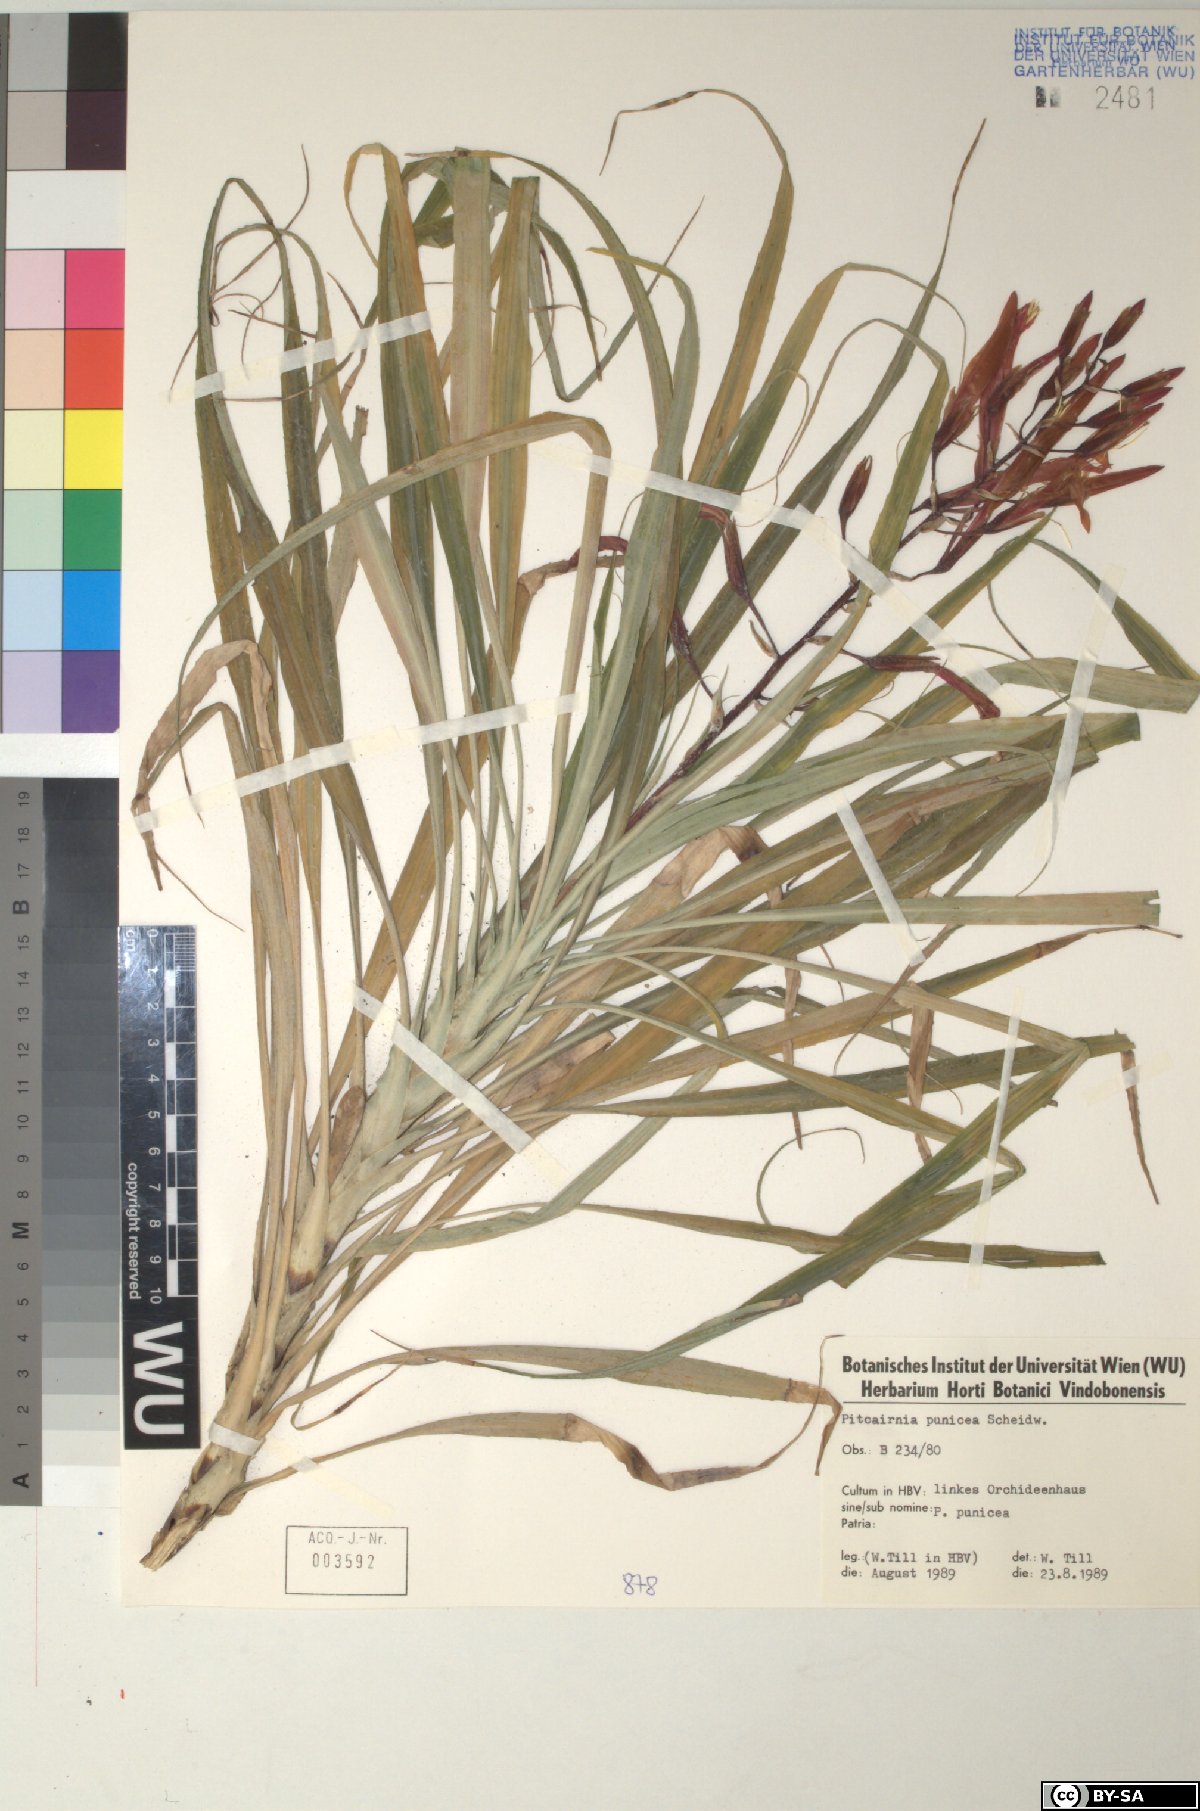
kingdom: Plantae
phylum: Tracheophyta
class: Liliopsida
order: Poales
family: Bromeliaceae
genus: Pitcairnia
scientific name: Pitcairnia punicea
